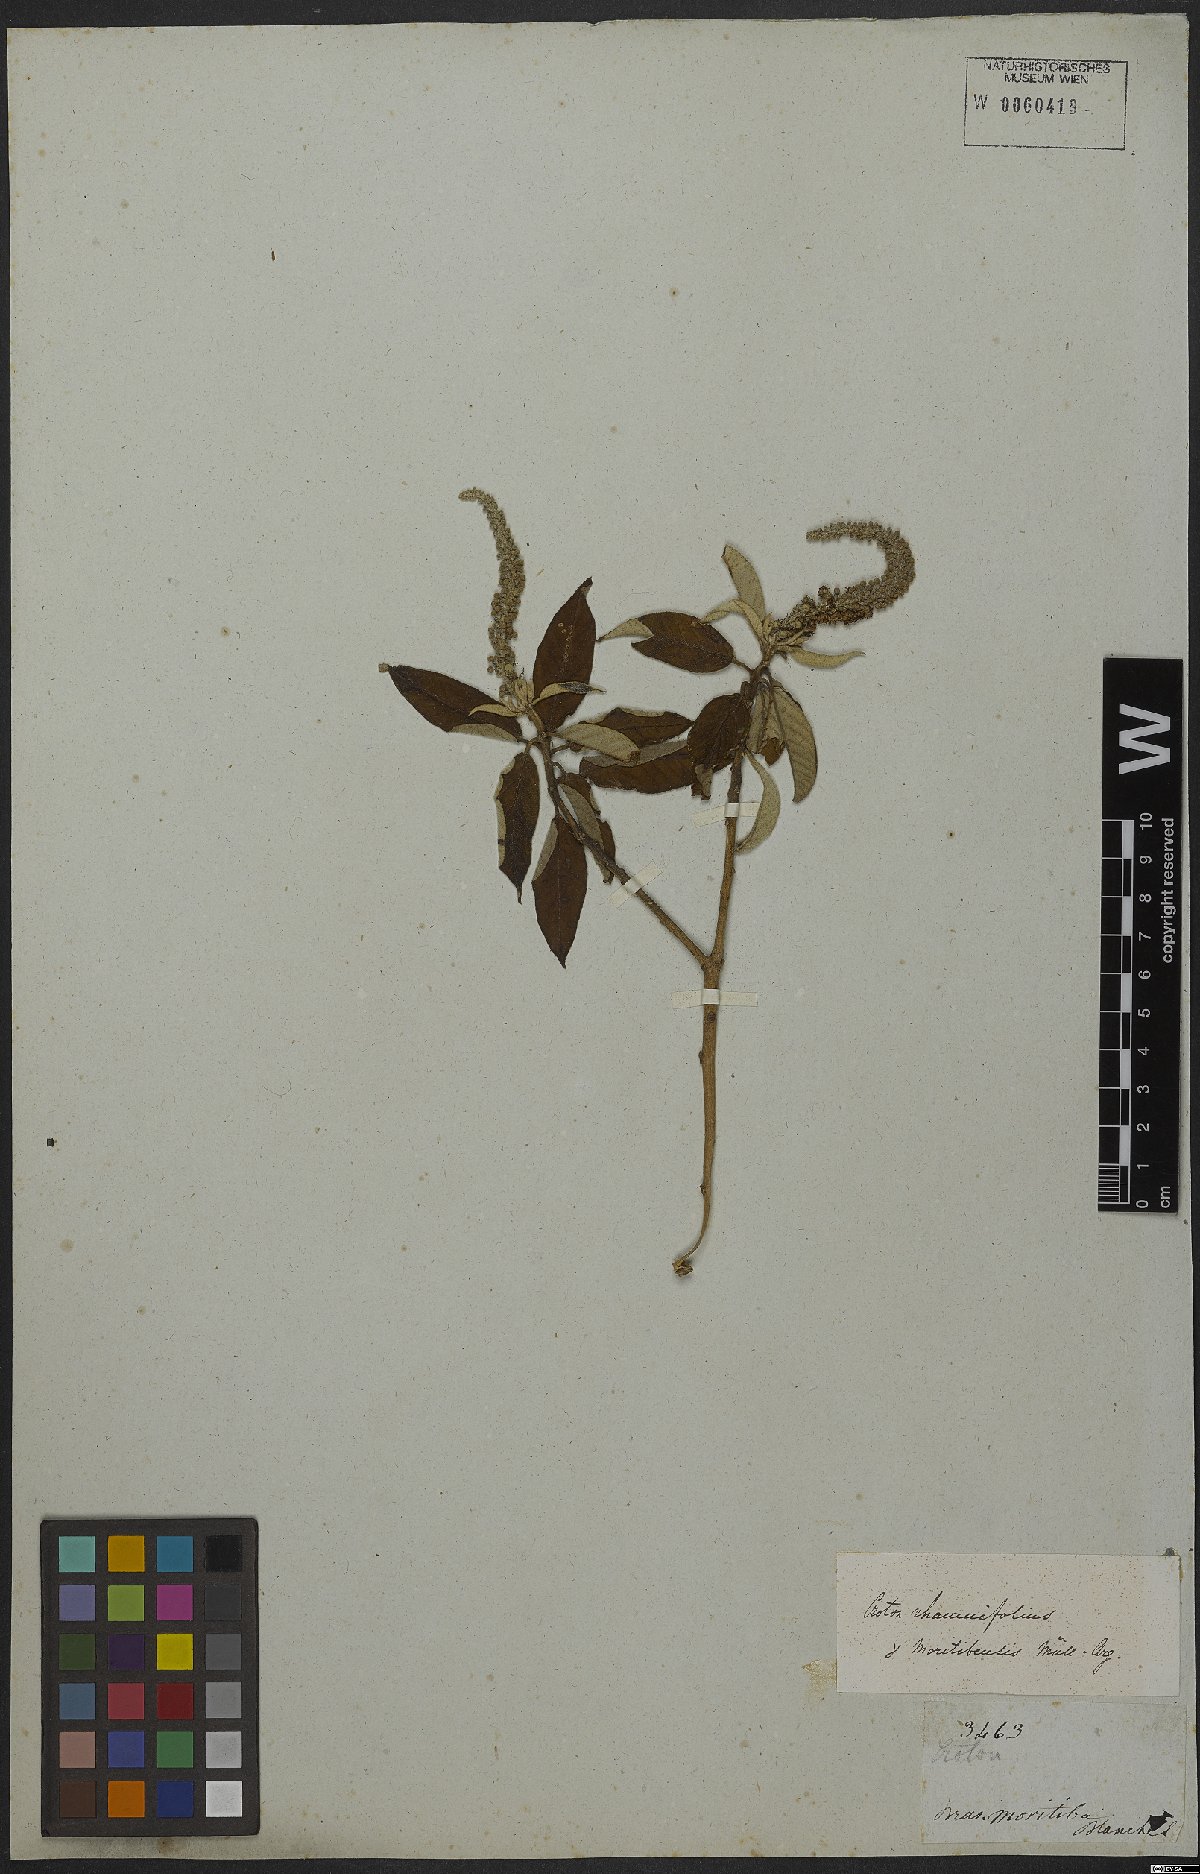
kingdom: Plantae
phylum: Tracheophyta
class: Magnoliopsida
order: Malpighiales
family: Euphorbiaceae
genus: Croton
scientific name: Croton heliotropiifolius
